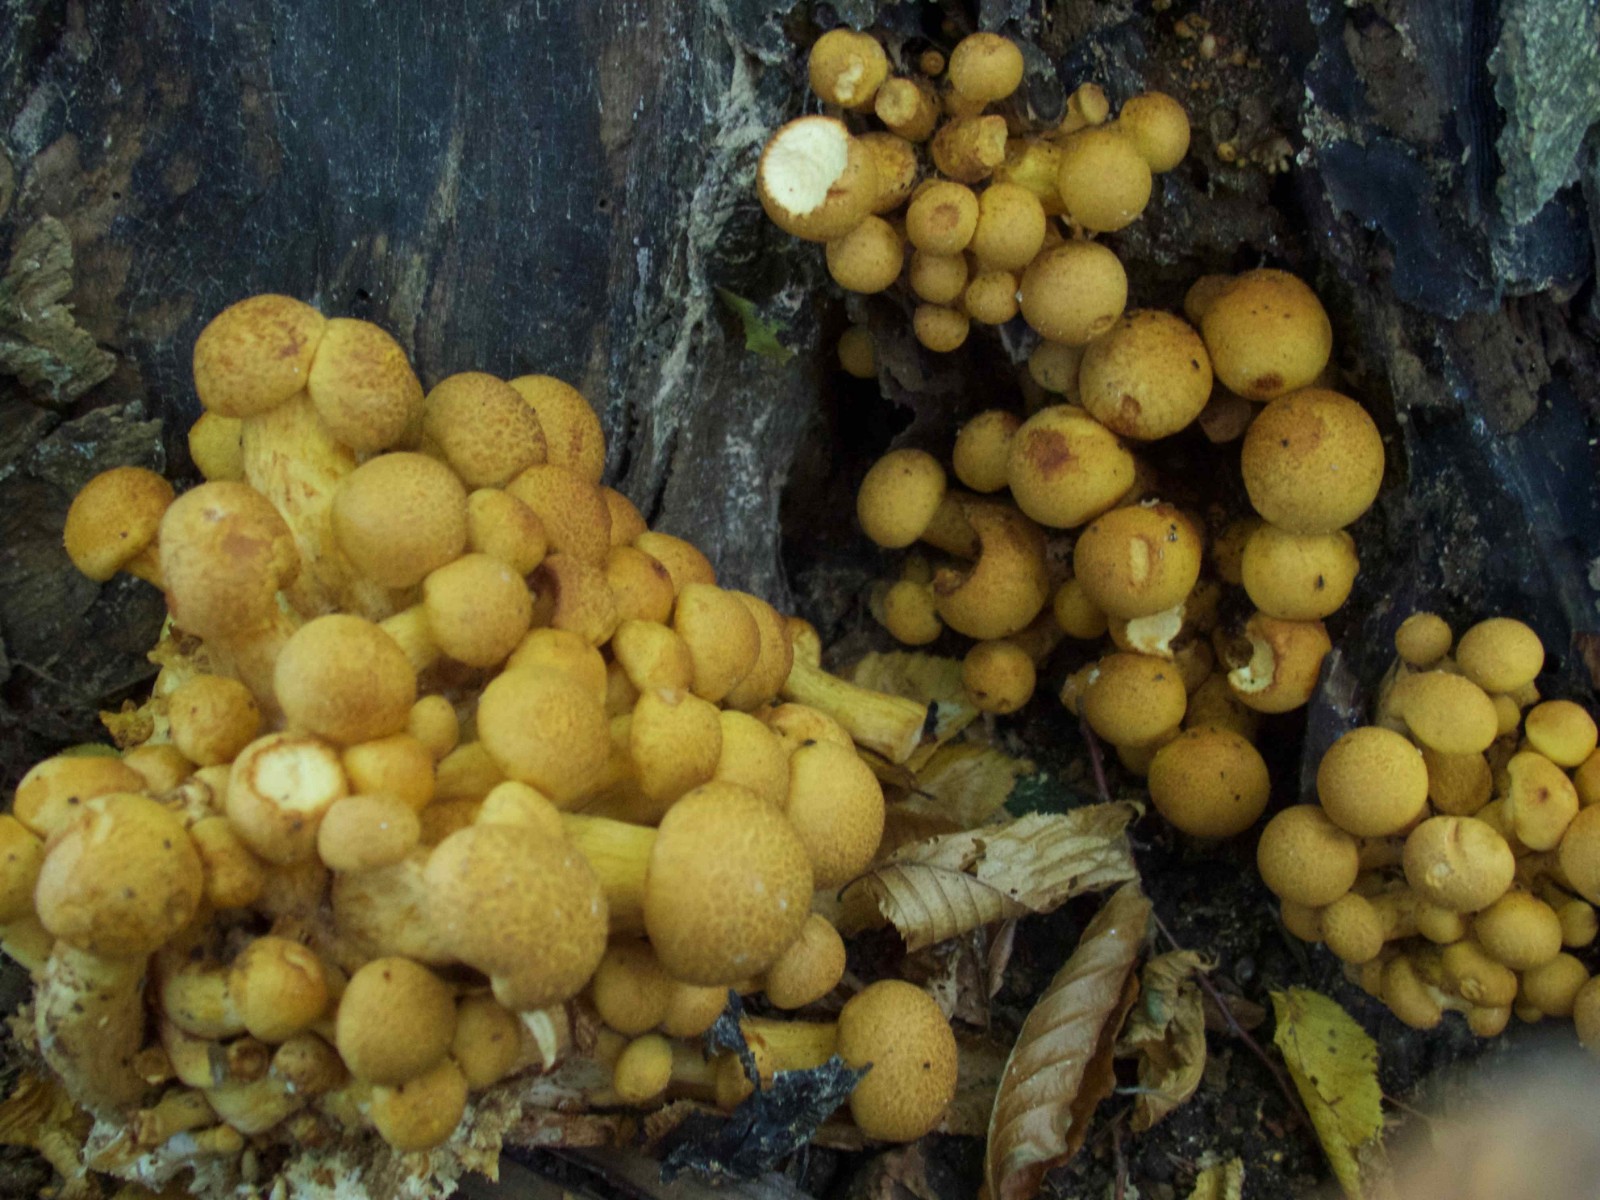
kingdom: Fungi
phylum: Basidiomycota
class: Agaricomycetes
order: Agaricales
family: Hymenogastraceae
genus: Gymnopilus
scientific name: Gymnopilus spectabilis
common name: fibret flammehat
